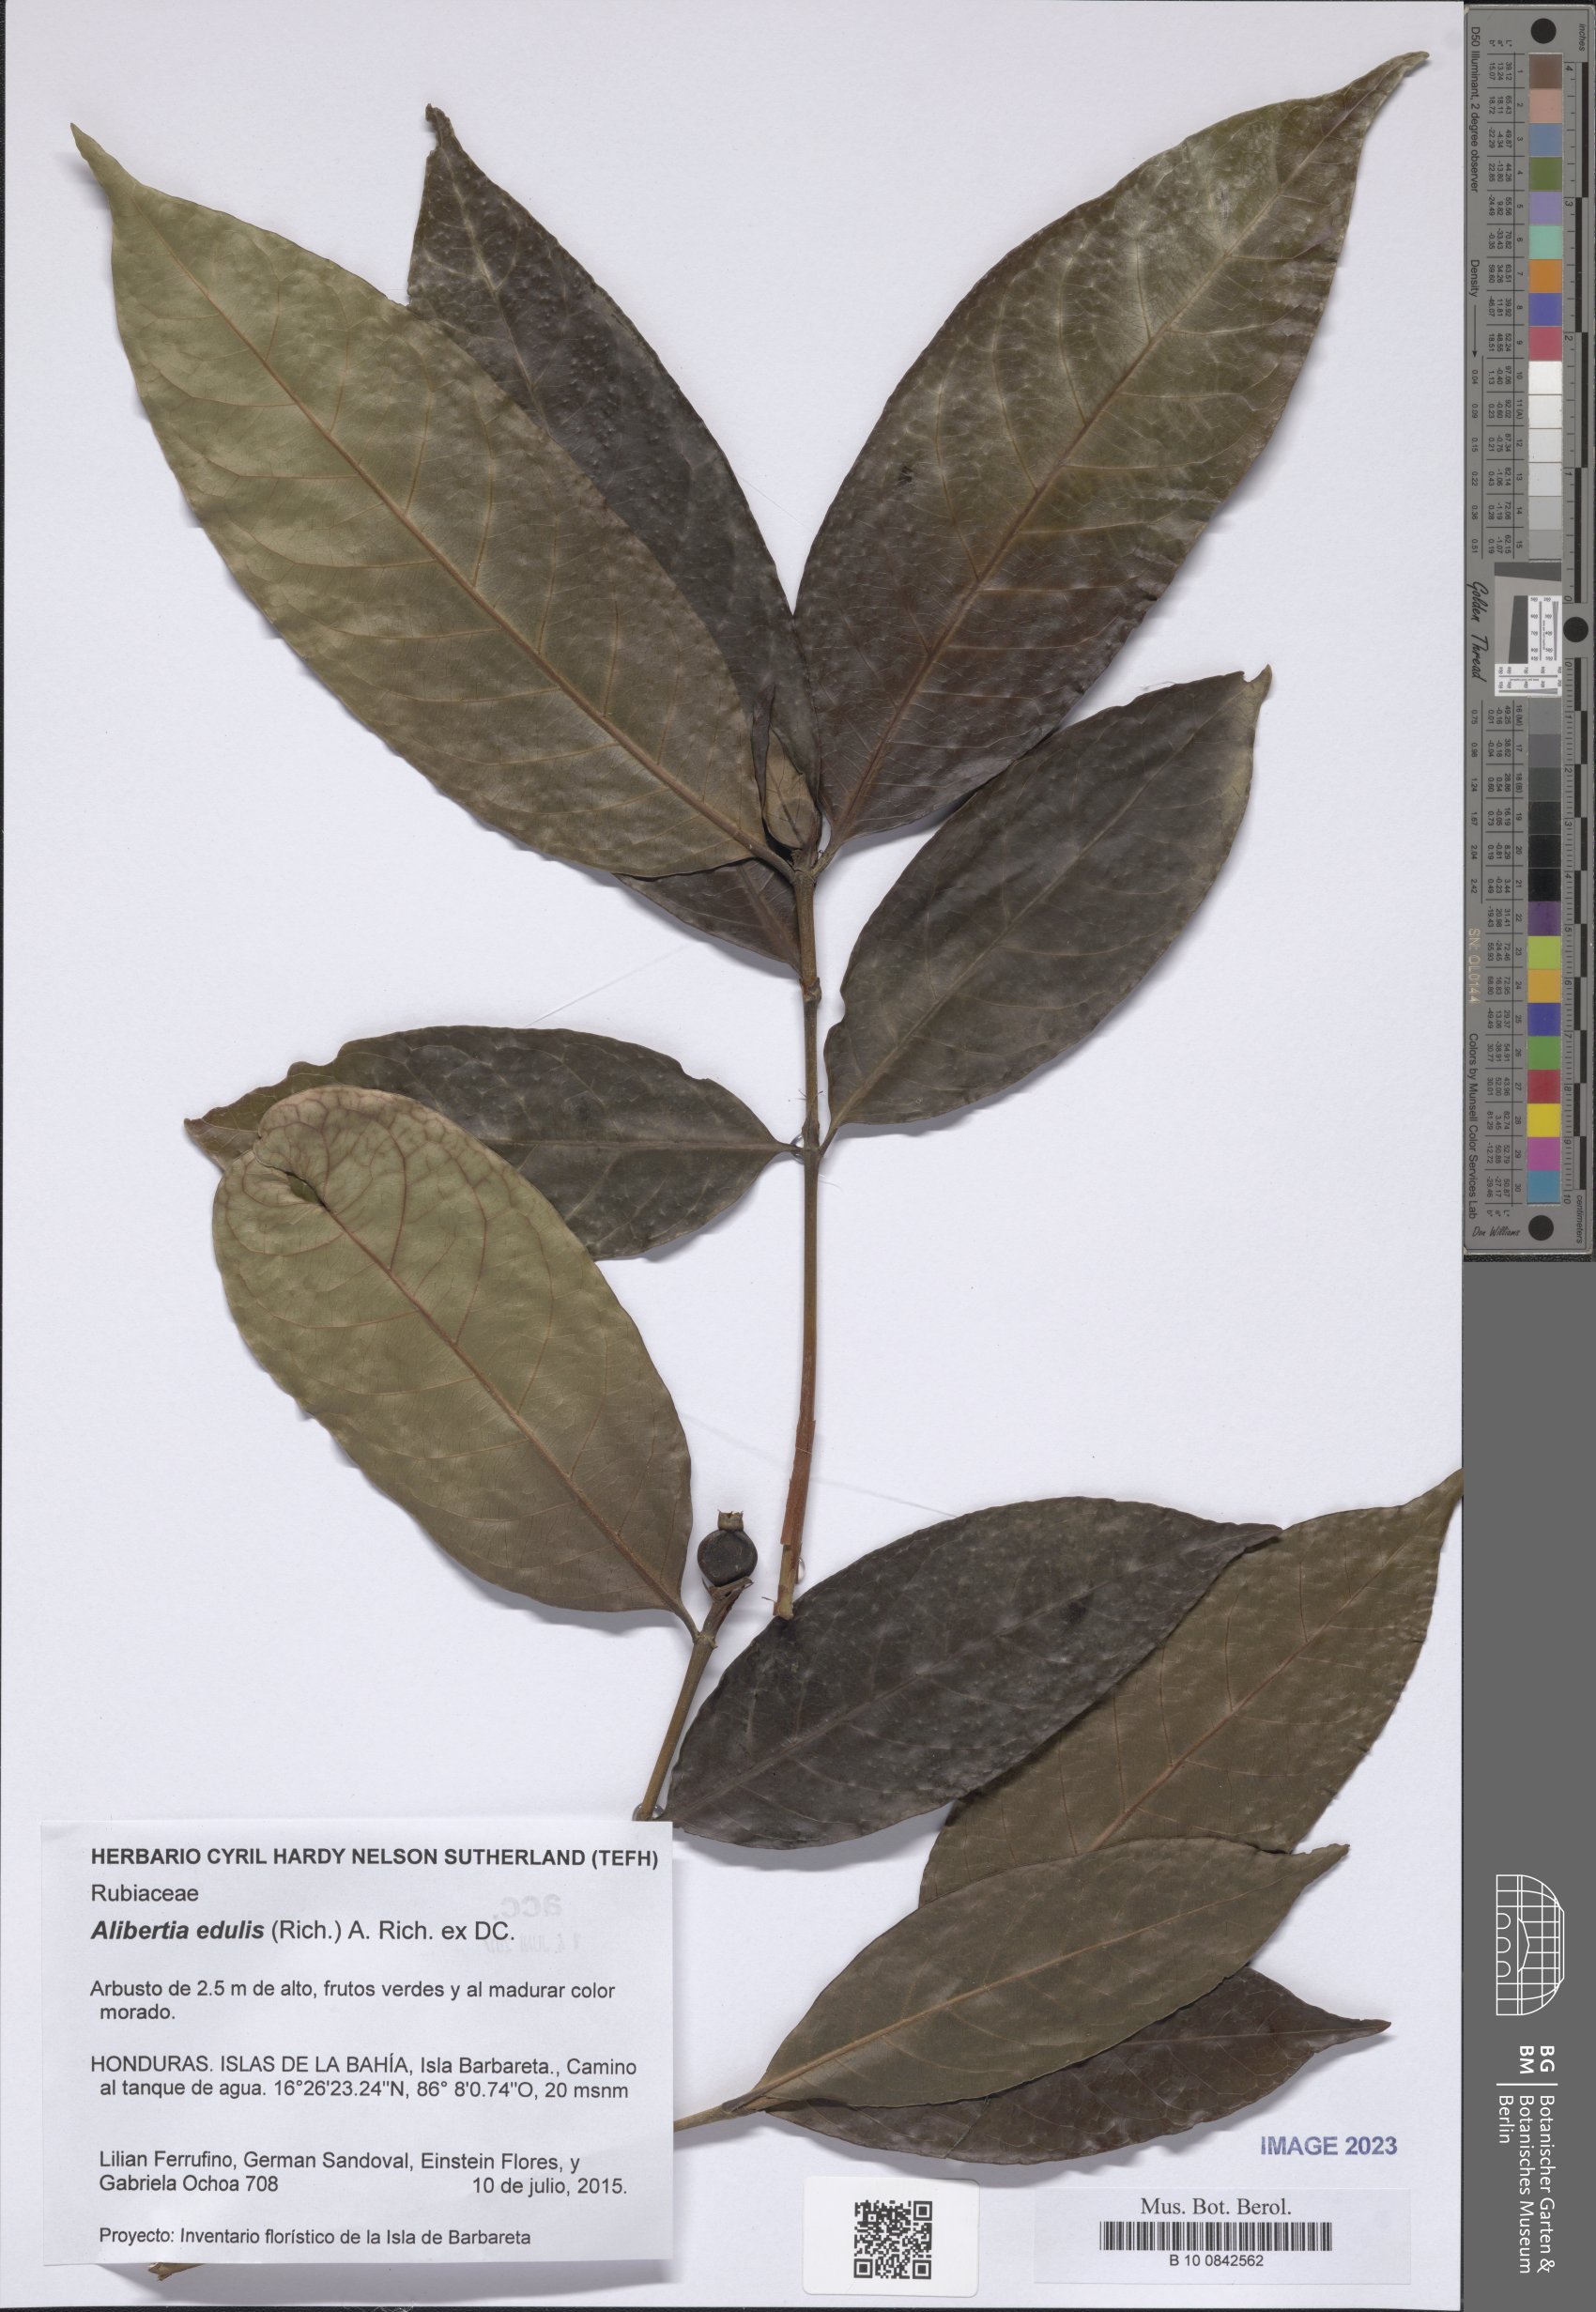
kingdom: Plantae
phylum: Tracheophyta
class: Magnoliopsida
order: Gentianales
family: Rubiaceae
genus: Alibertia
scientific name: Alibertia edulis
